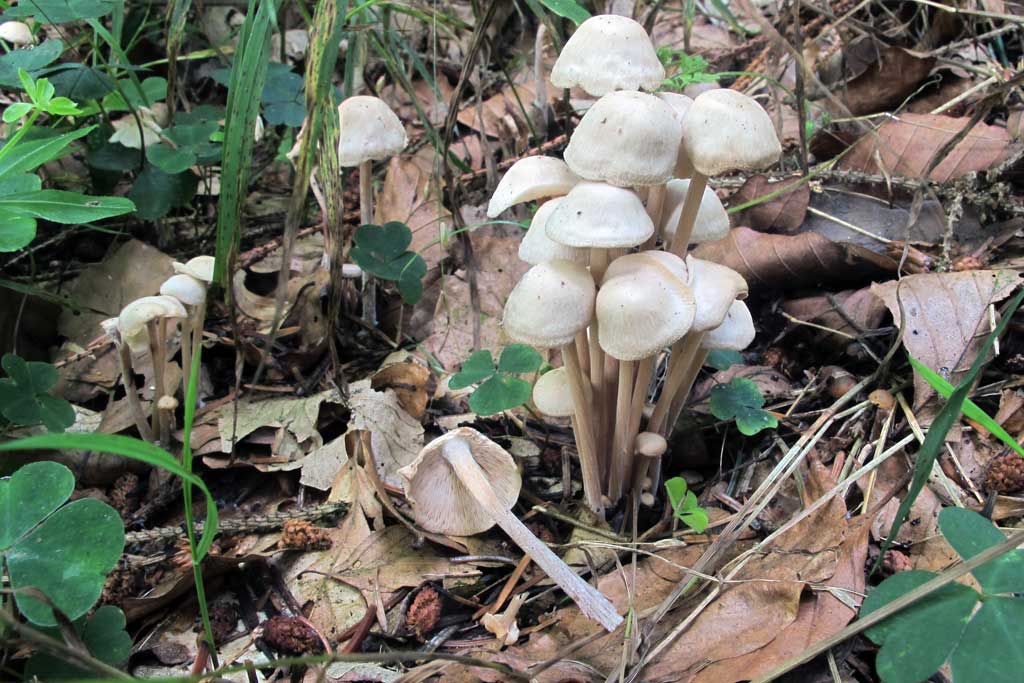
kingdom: Fungi
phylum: Basidiomycota
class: Agaricomycetes
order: Agaricales
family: Omphalotaceae
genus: Collybiopsis
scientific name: Collybiopsis confluens
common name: knippe-fladhat
